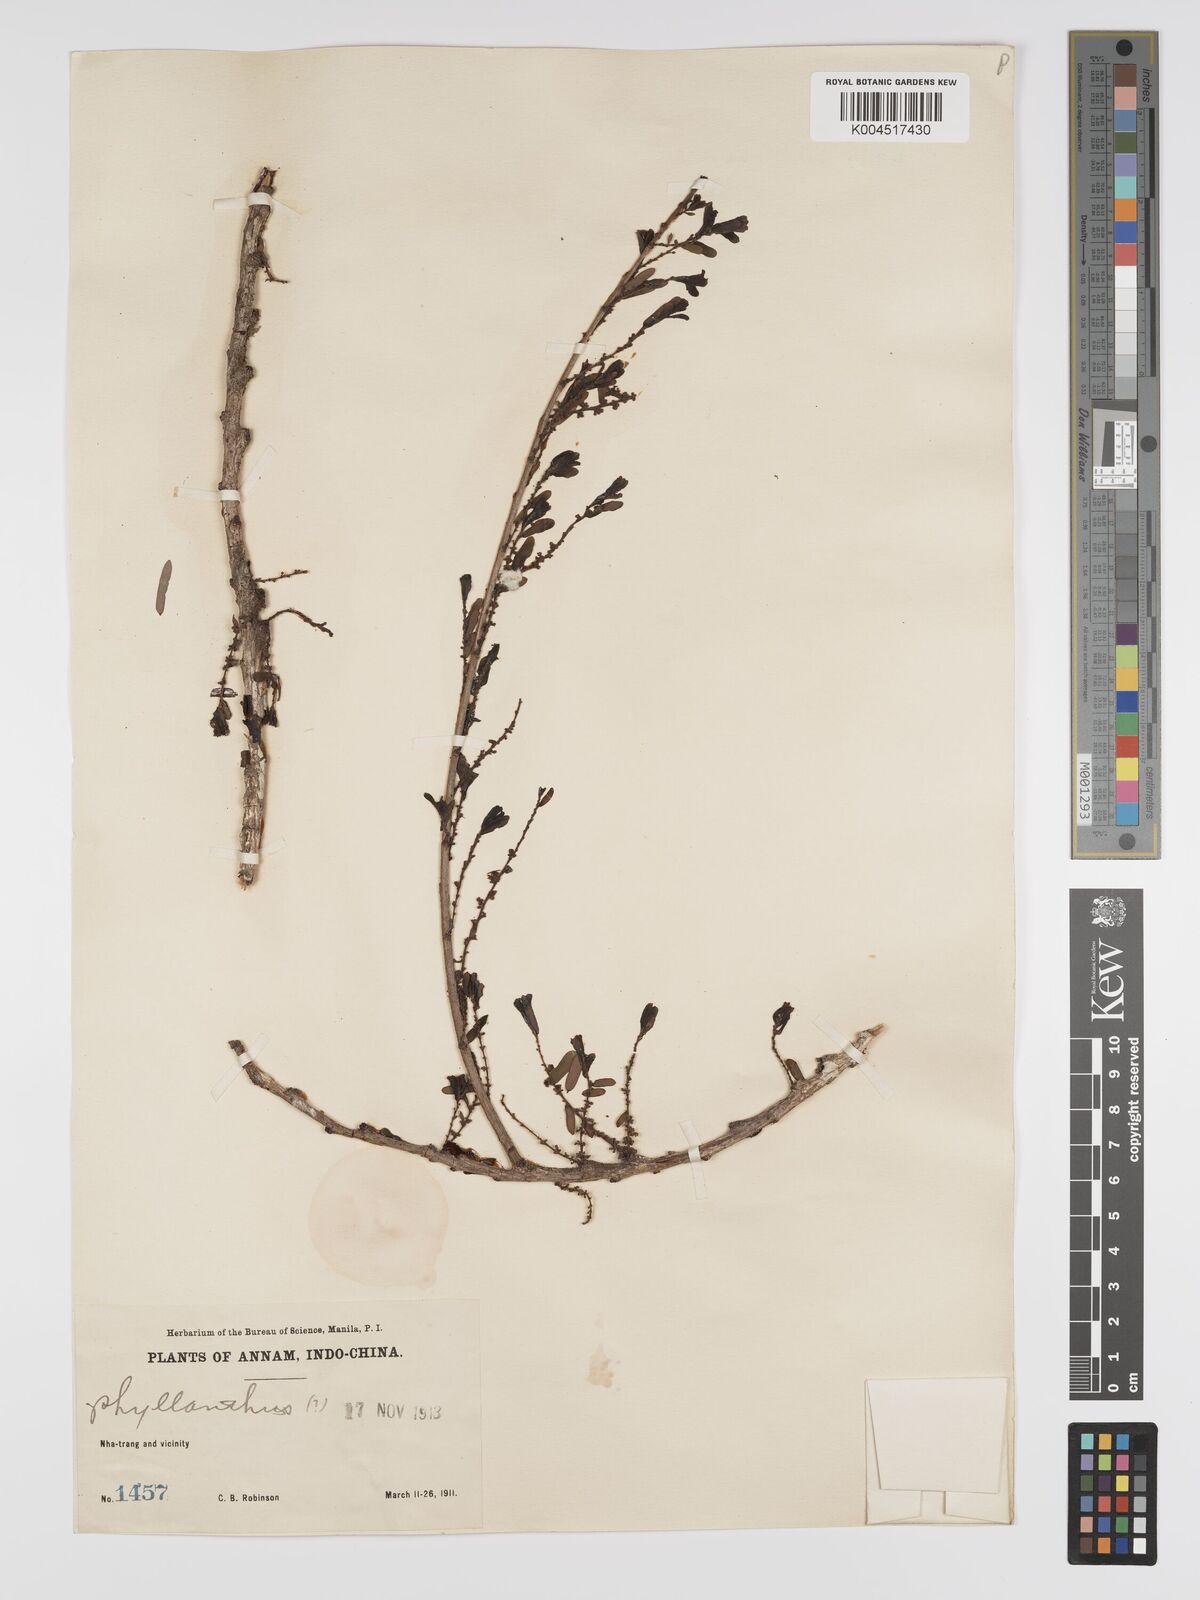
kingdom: Plantae
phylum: Tracheophyta
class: Magnoliopsida
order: Malpighiales
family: Phyllanthaceae
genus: Phyllanthus
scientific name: Phyllanthus emblica
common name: Indian gooseberry
